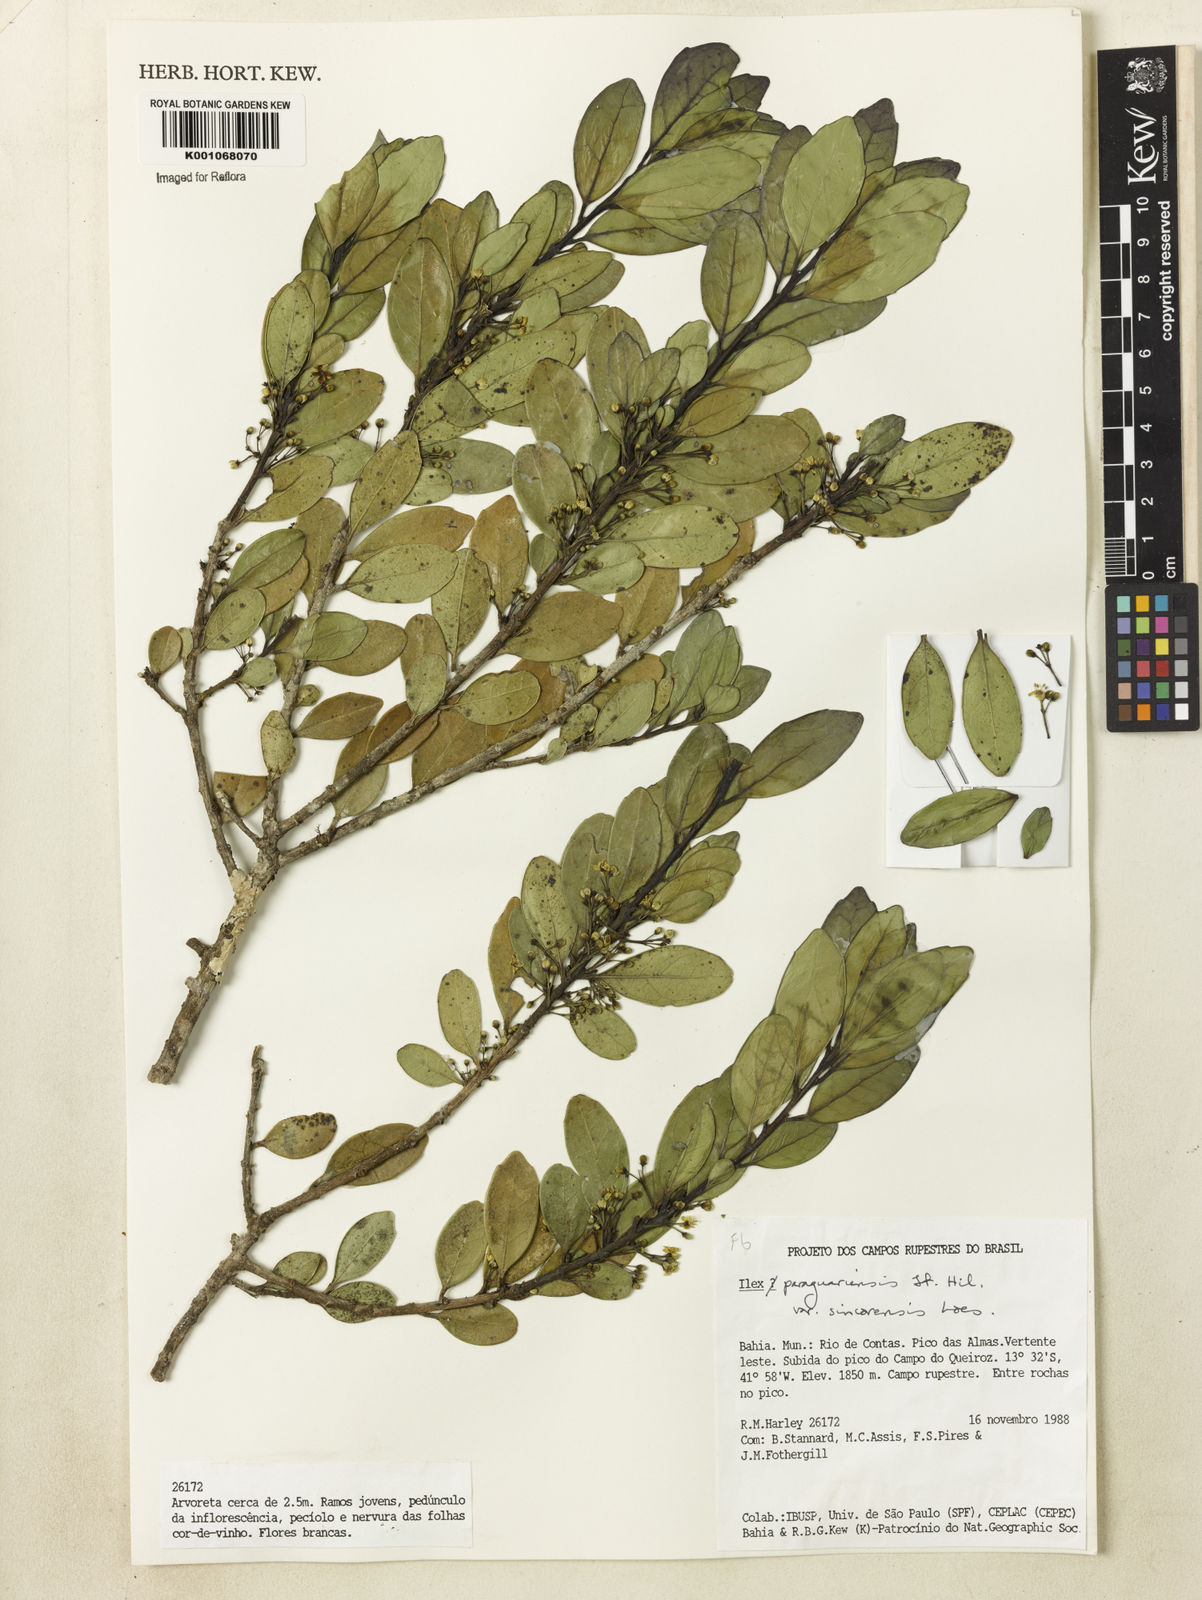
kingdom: Plantae
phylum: Tracheophyta
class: Magnoliopsida
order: Aquifoliales
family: Aquifoliaceae
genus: Ilex
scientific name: Ilex paraguariensis
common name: Paraguay tea
